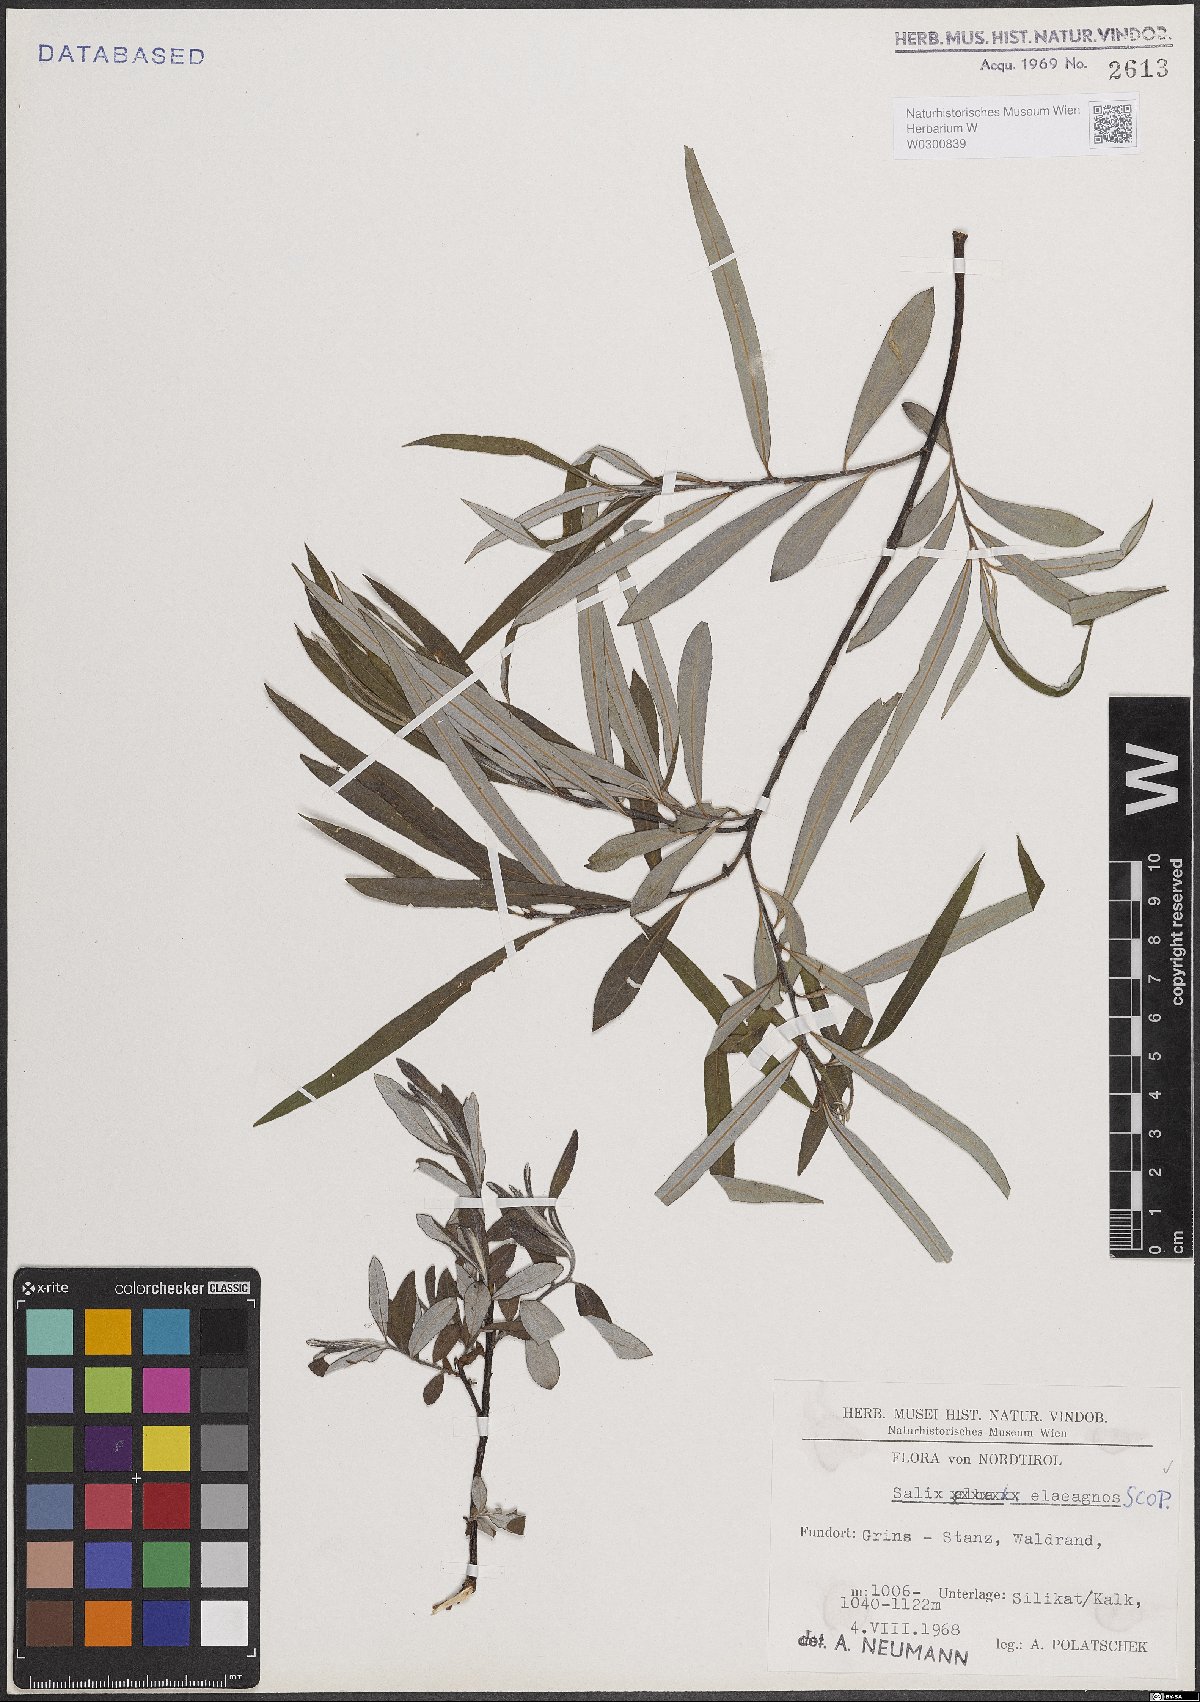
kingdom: Plantae
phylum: Tracheophyta
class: Magnoliopsida
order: Malpighiales
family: Salicaceae
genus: Salix
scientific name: Salix eleagnos
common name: Elaeagnus willow
